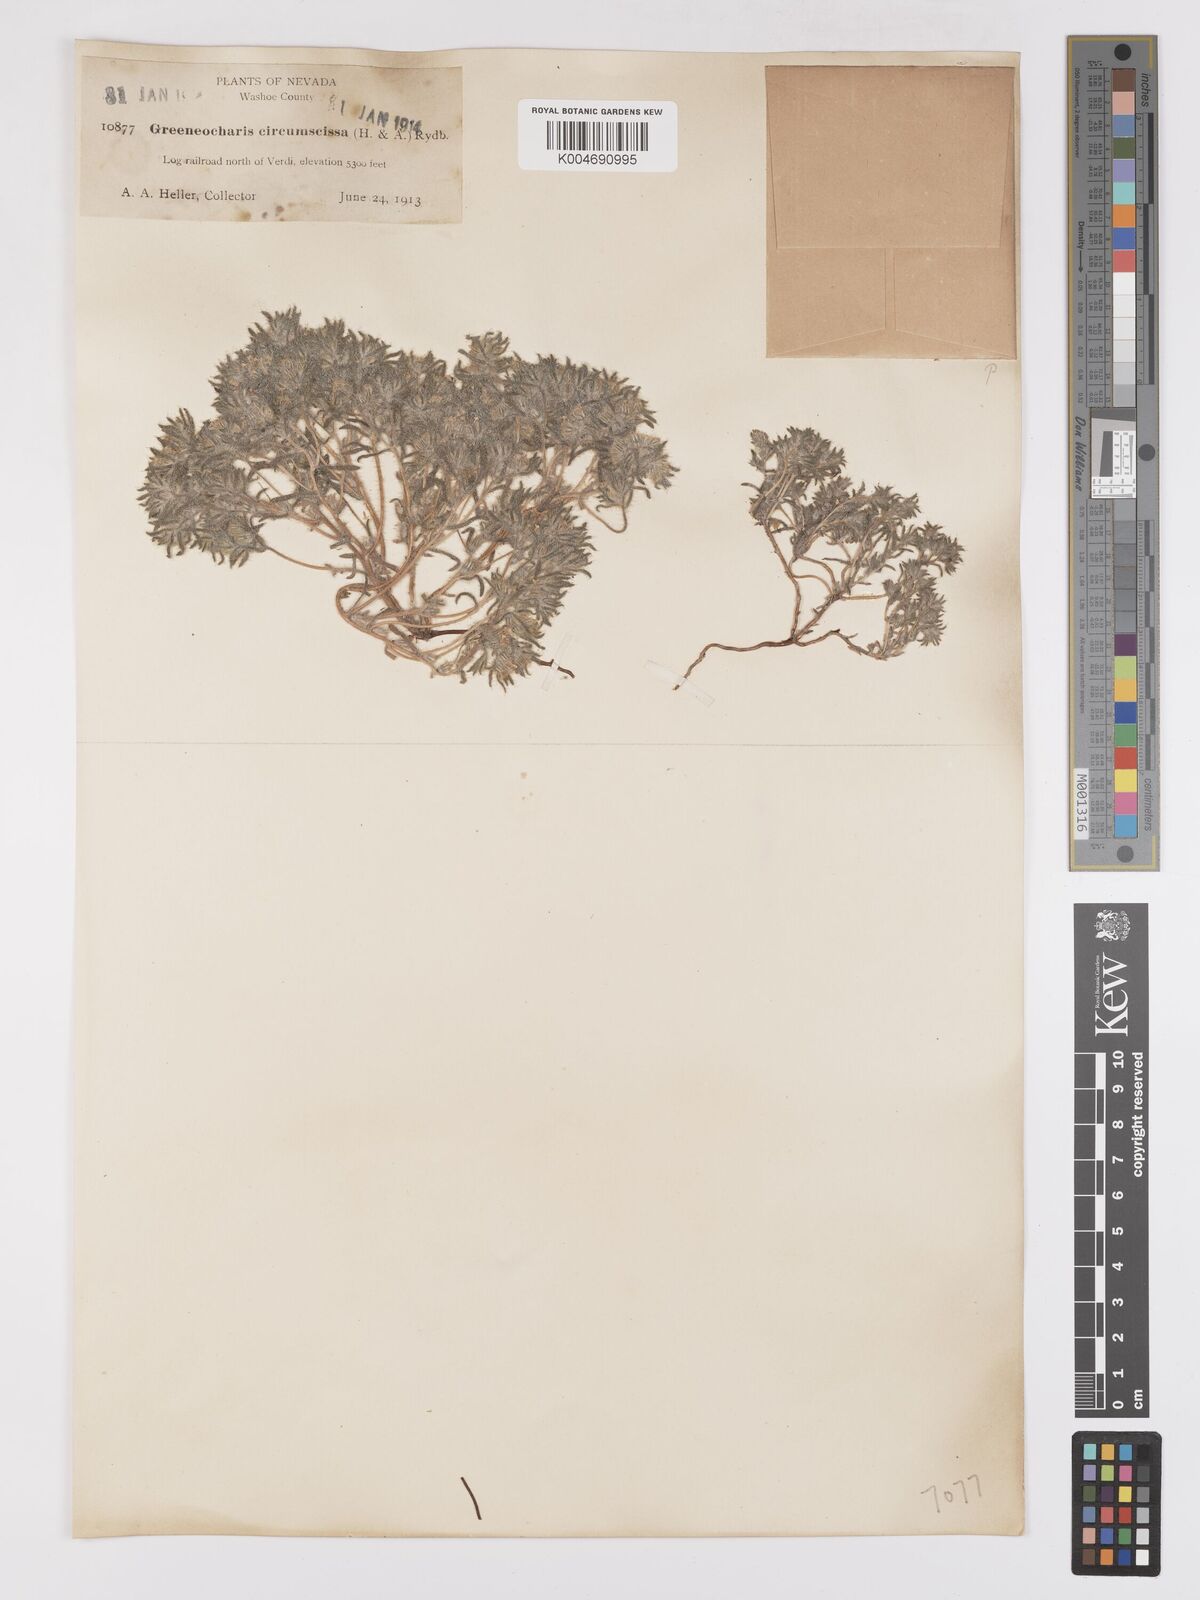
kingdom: Plantae
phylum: Tracheophyta
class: Magnoliopsida
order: Boraginales
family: Boraginaceae
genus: Greeneocharis
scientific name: Greeneocharis circumscissa
